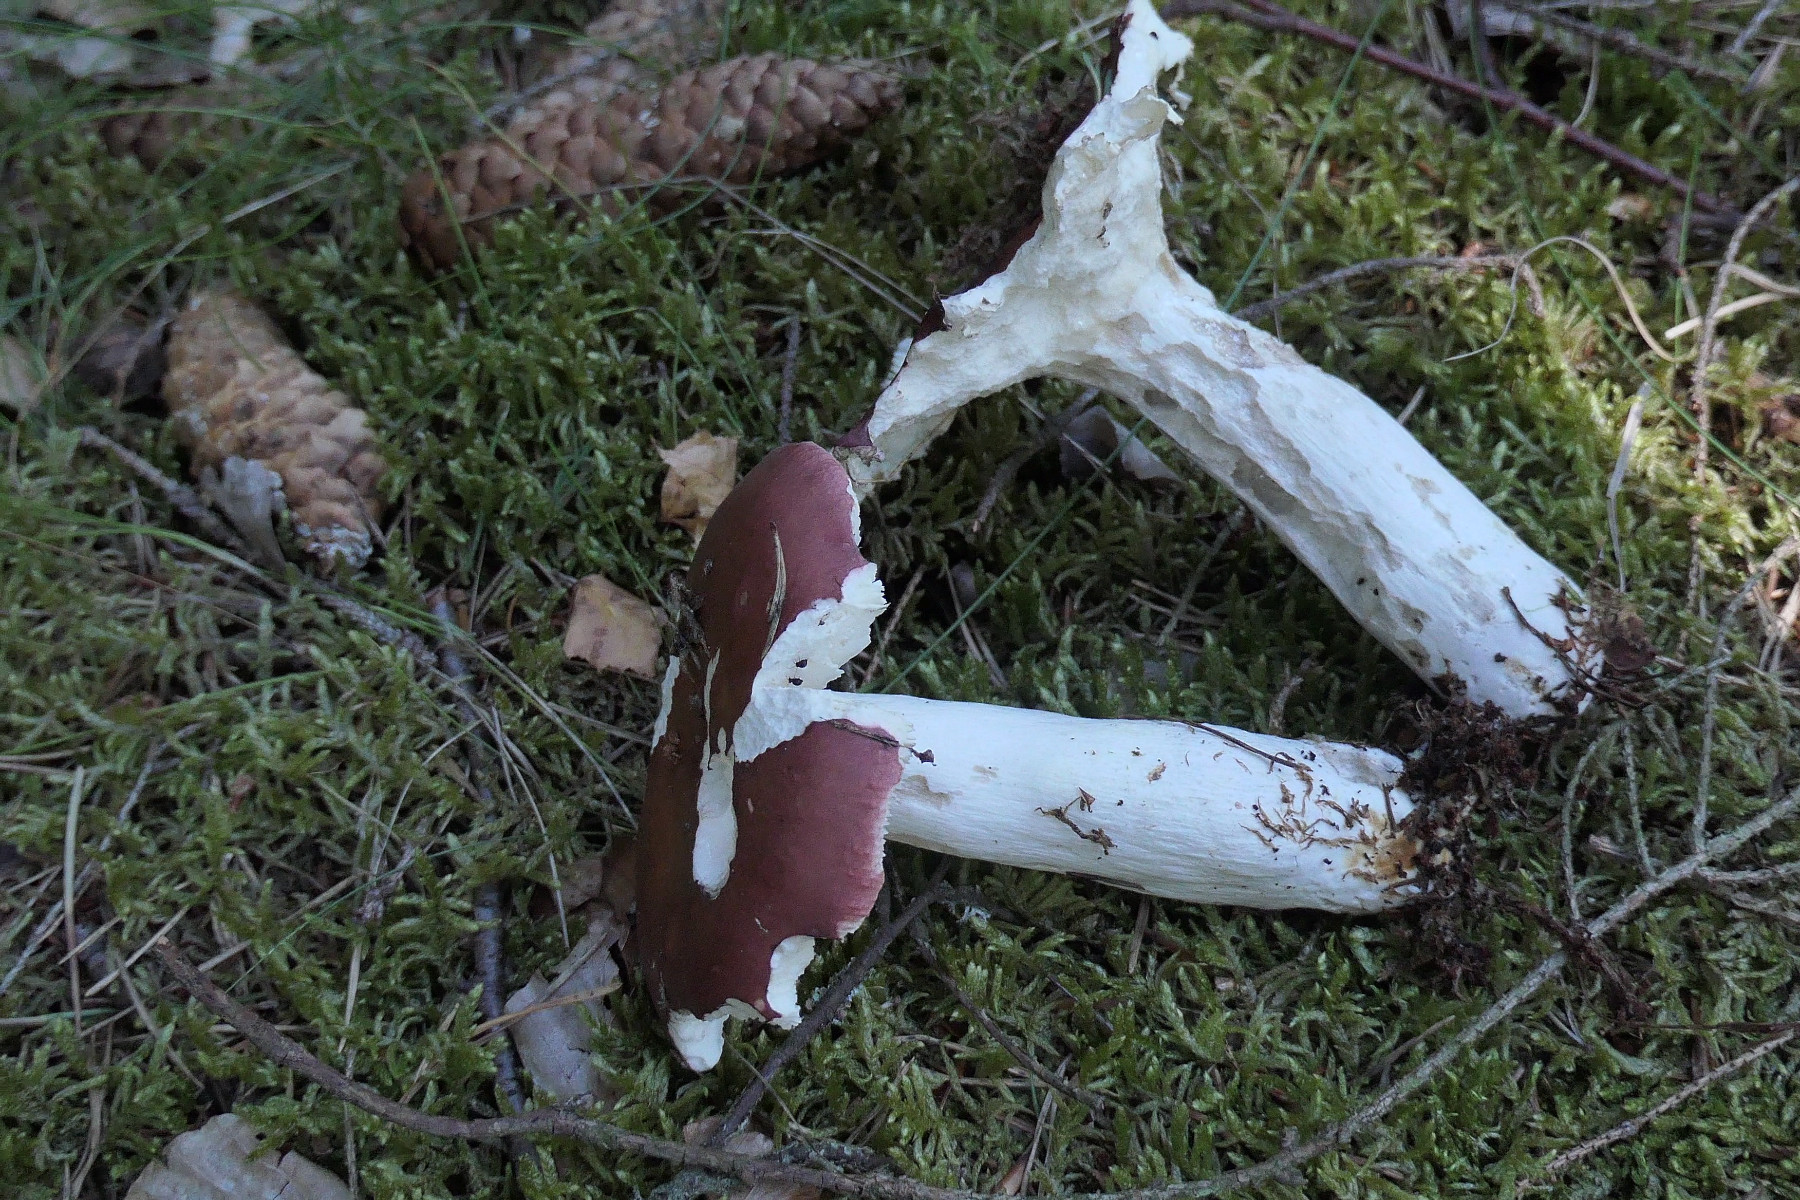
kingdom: Fungi
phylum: Basidiomycota
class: Agaricomycetes
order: Russulales
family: Russulaceae
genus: Russula
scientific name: Russula vinosa
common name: vinrød skørhat
